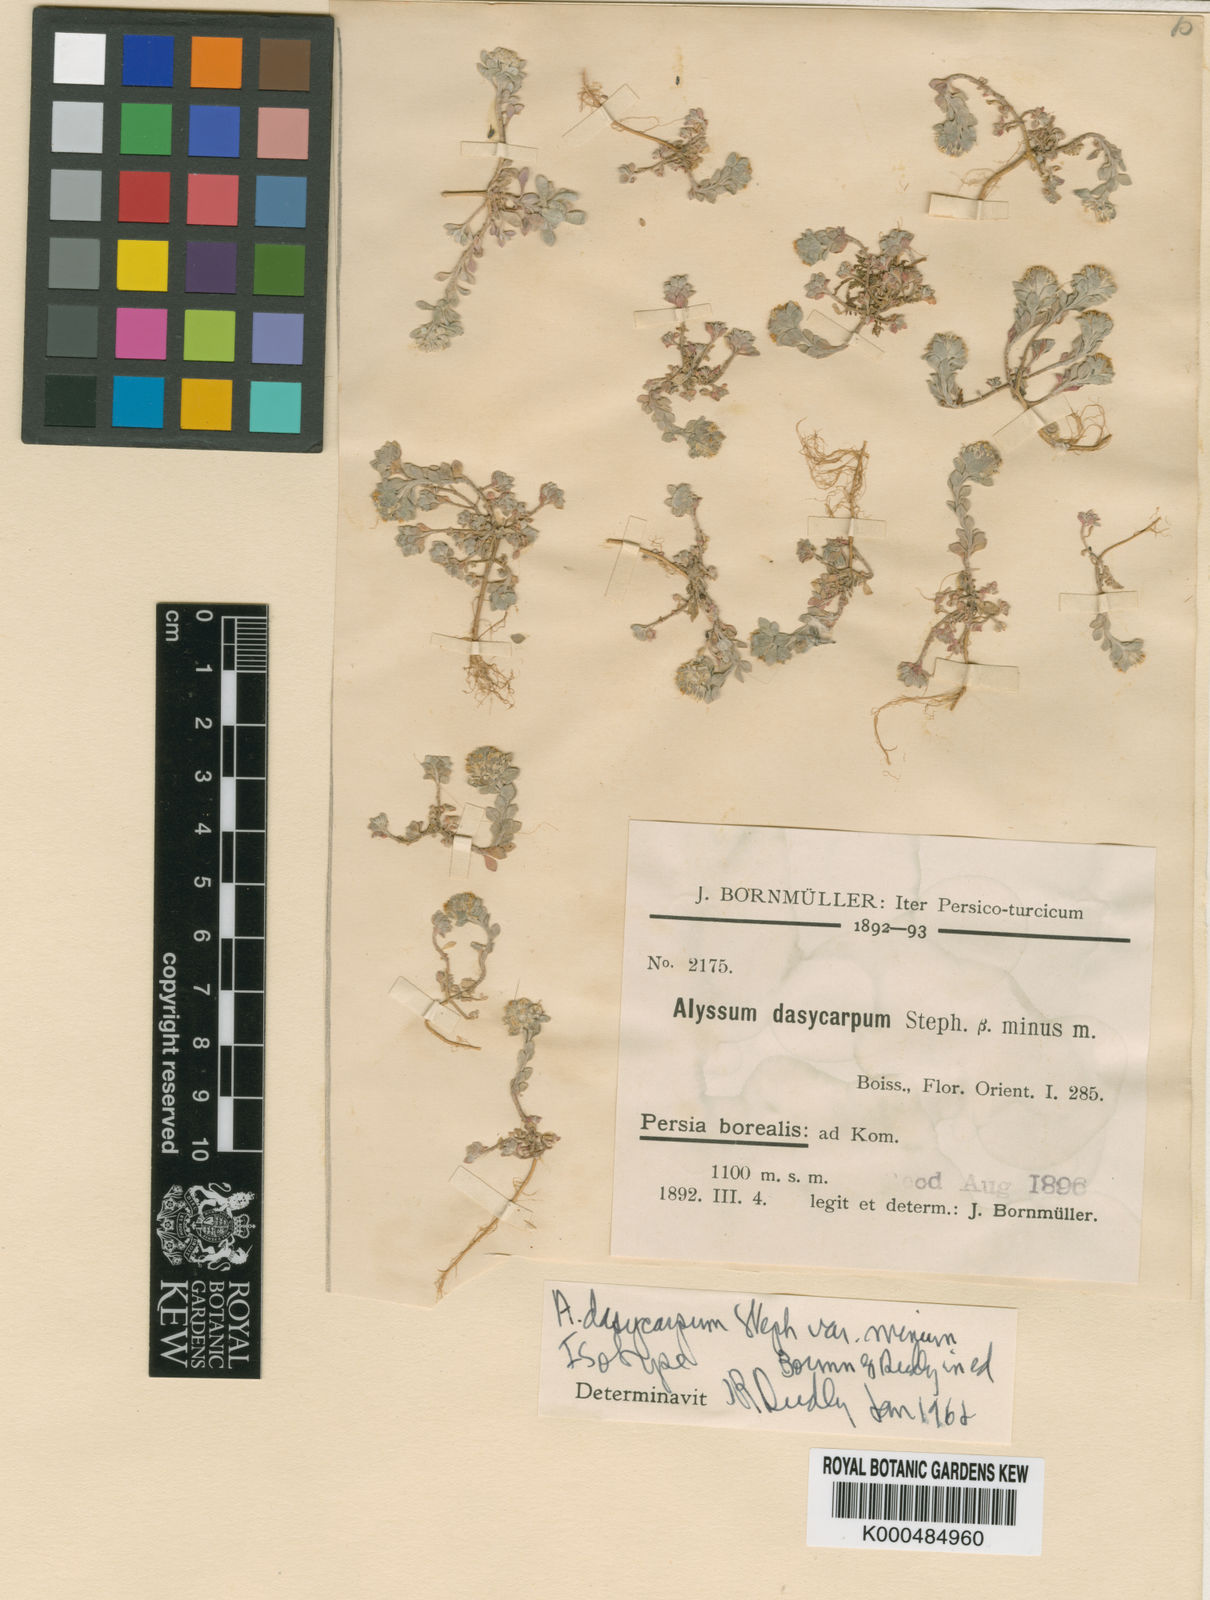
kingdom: Plantae
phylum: Tracheophyta
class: Magnoliopsida
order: Brassicales
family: Brassicaceae
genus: Alyssum
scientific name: Alyssum dasycarpum
